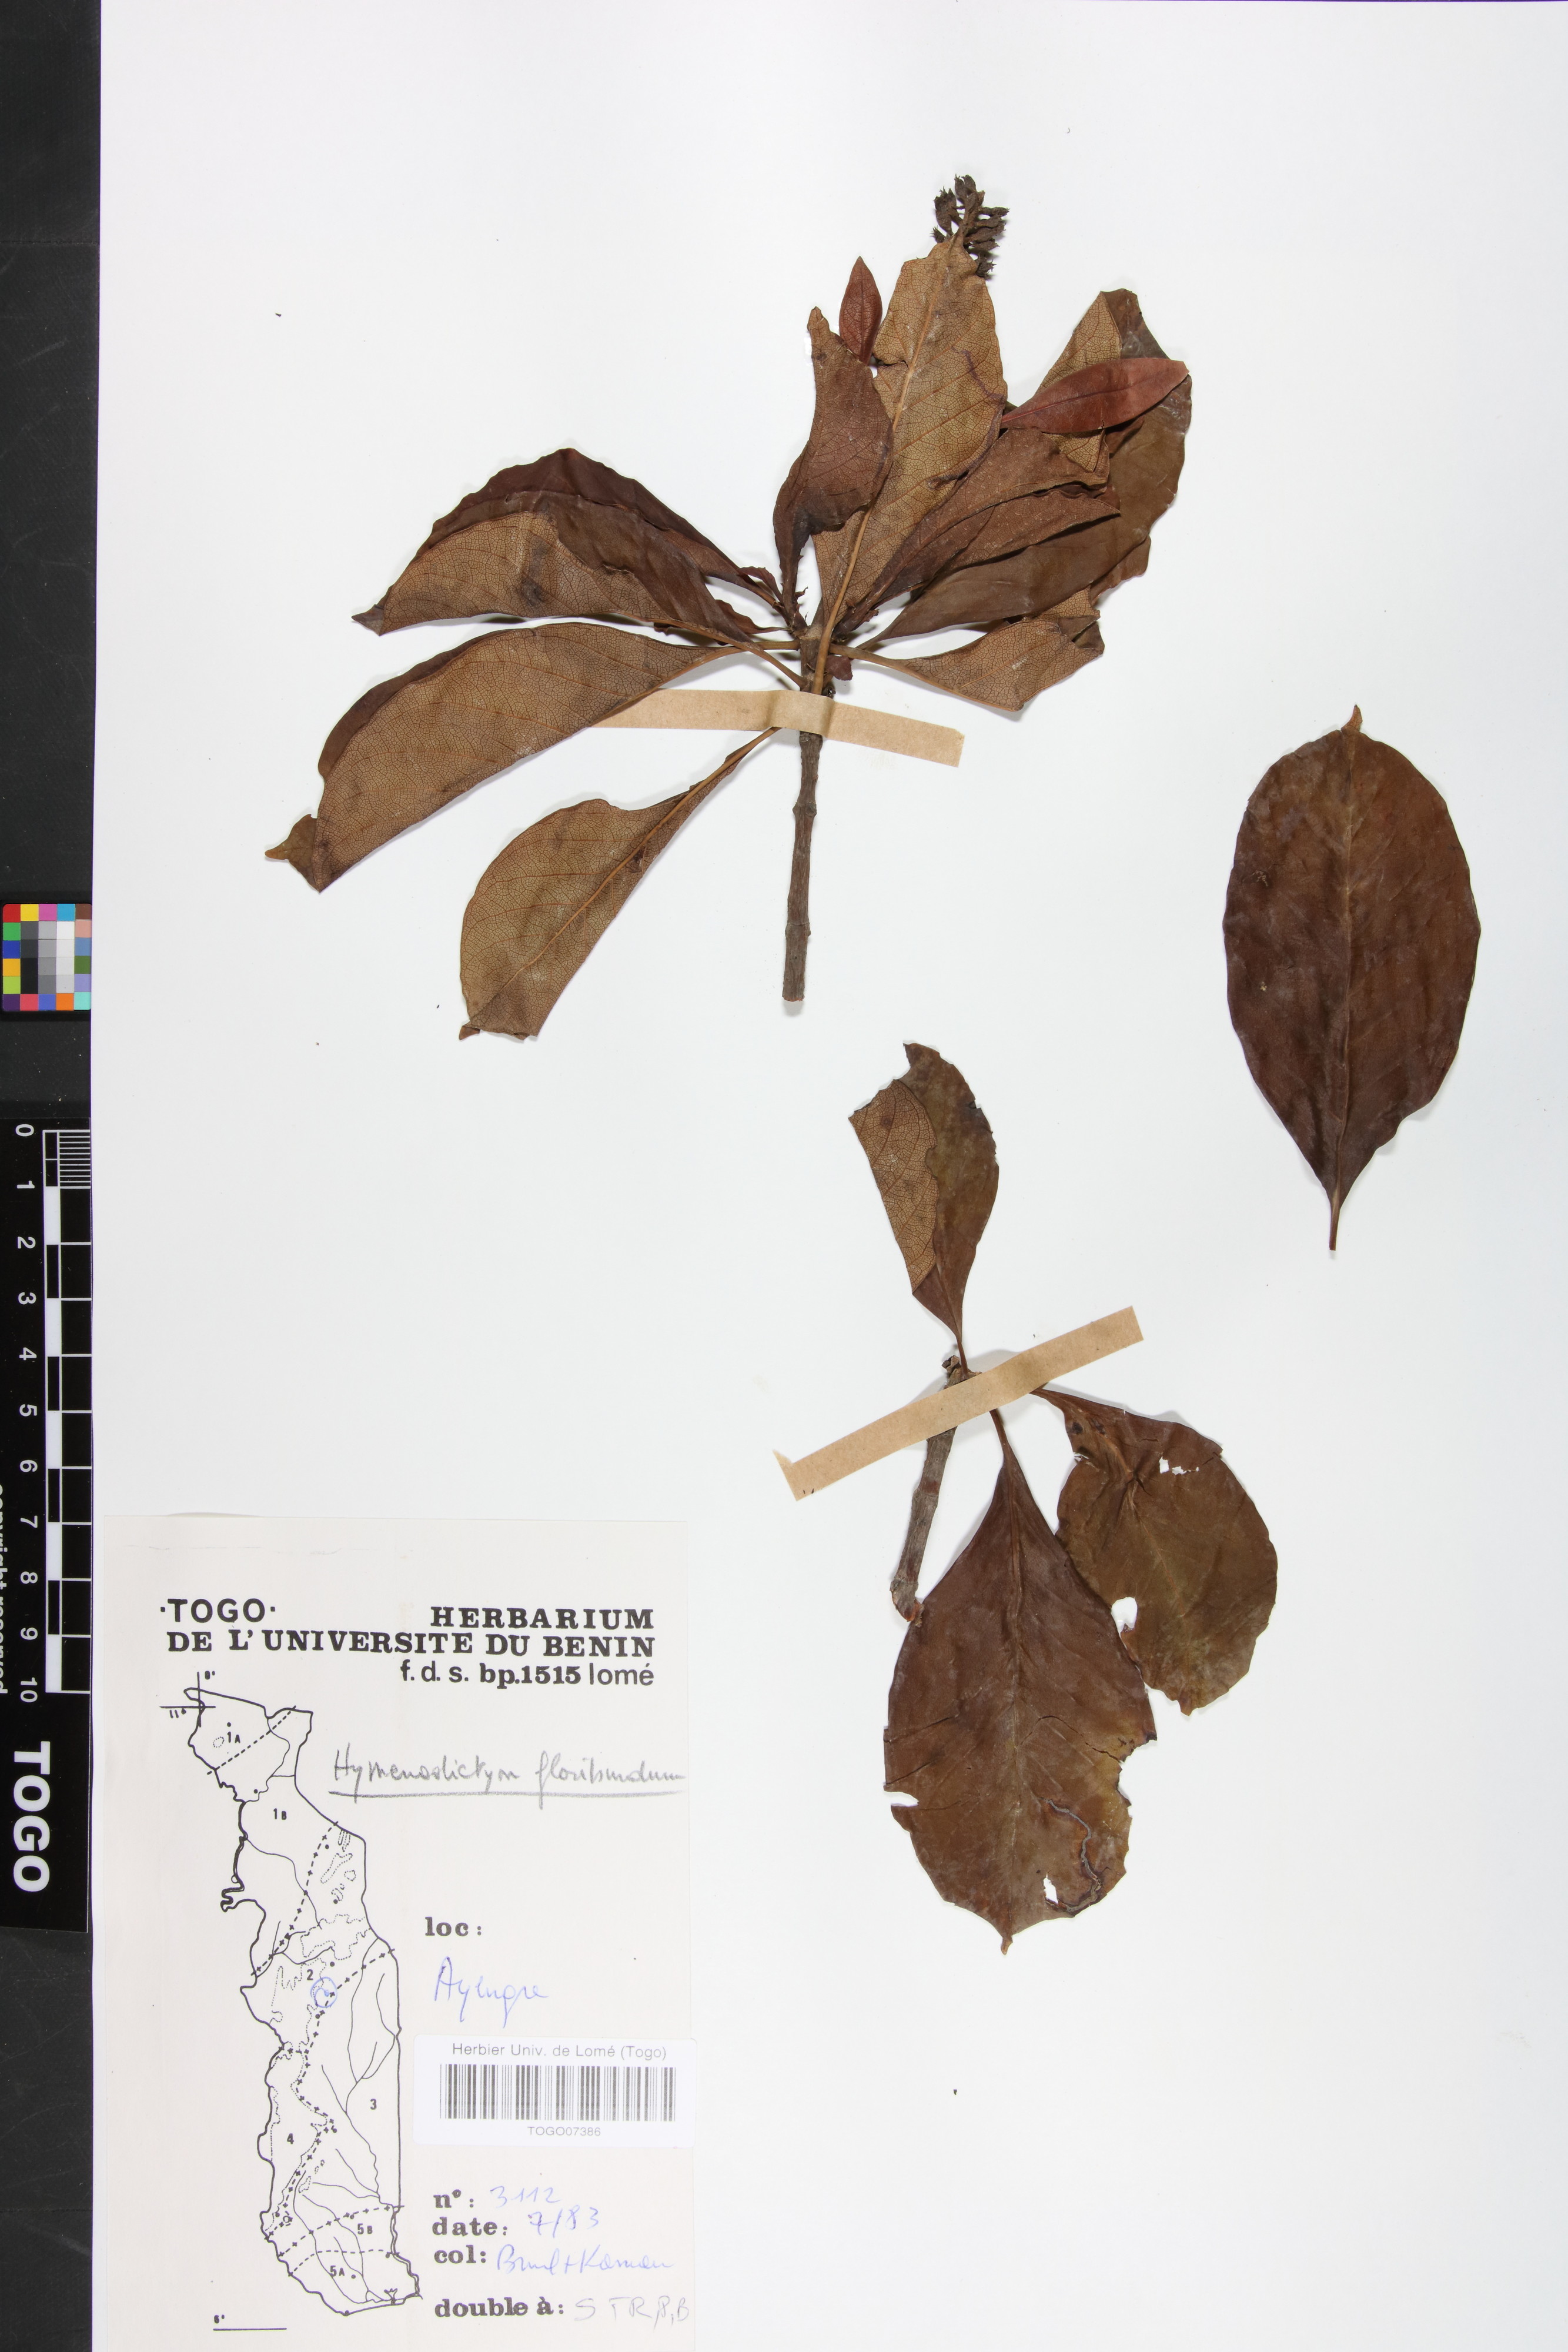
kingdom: Plantae
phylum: Tracheophyta
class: Magnoliopsida
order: Gentianales
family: Rubiaceae
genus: Hymenodictyon
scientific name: Hymenodictyon floribundum
